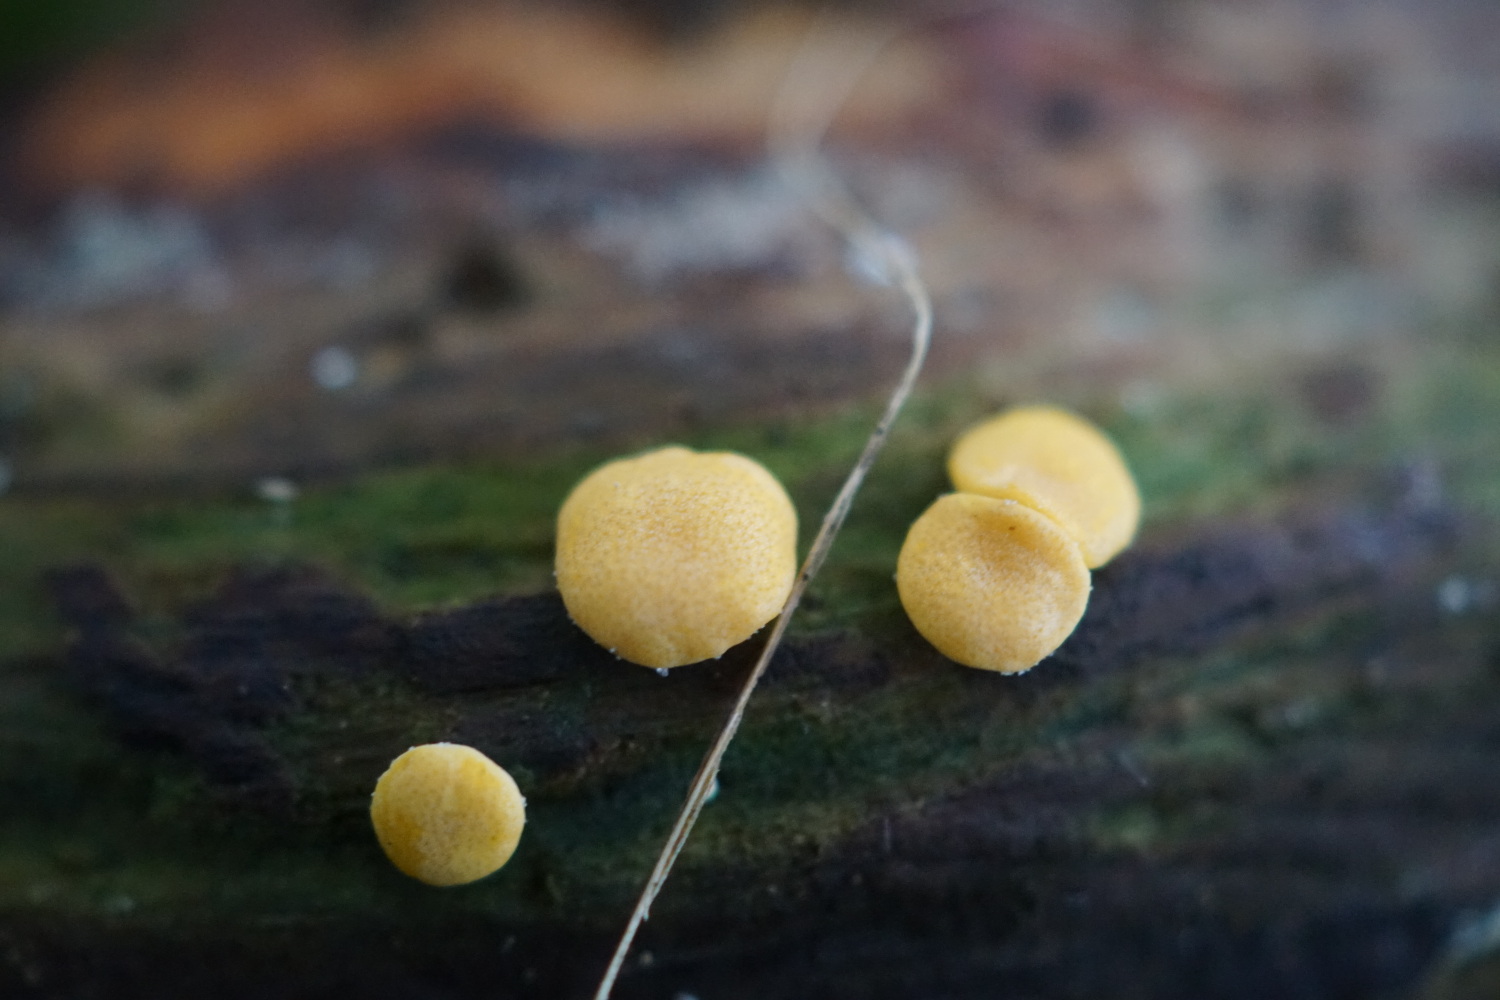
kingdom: Fungi
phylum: Ascomycota
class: Sordariomycetes
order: Hypocreales
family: Hypocreaceae
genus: Trichoderma
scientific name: Trichoderma
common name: kødkerne
